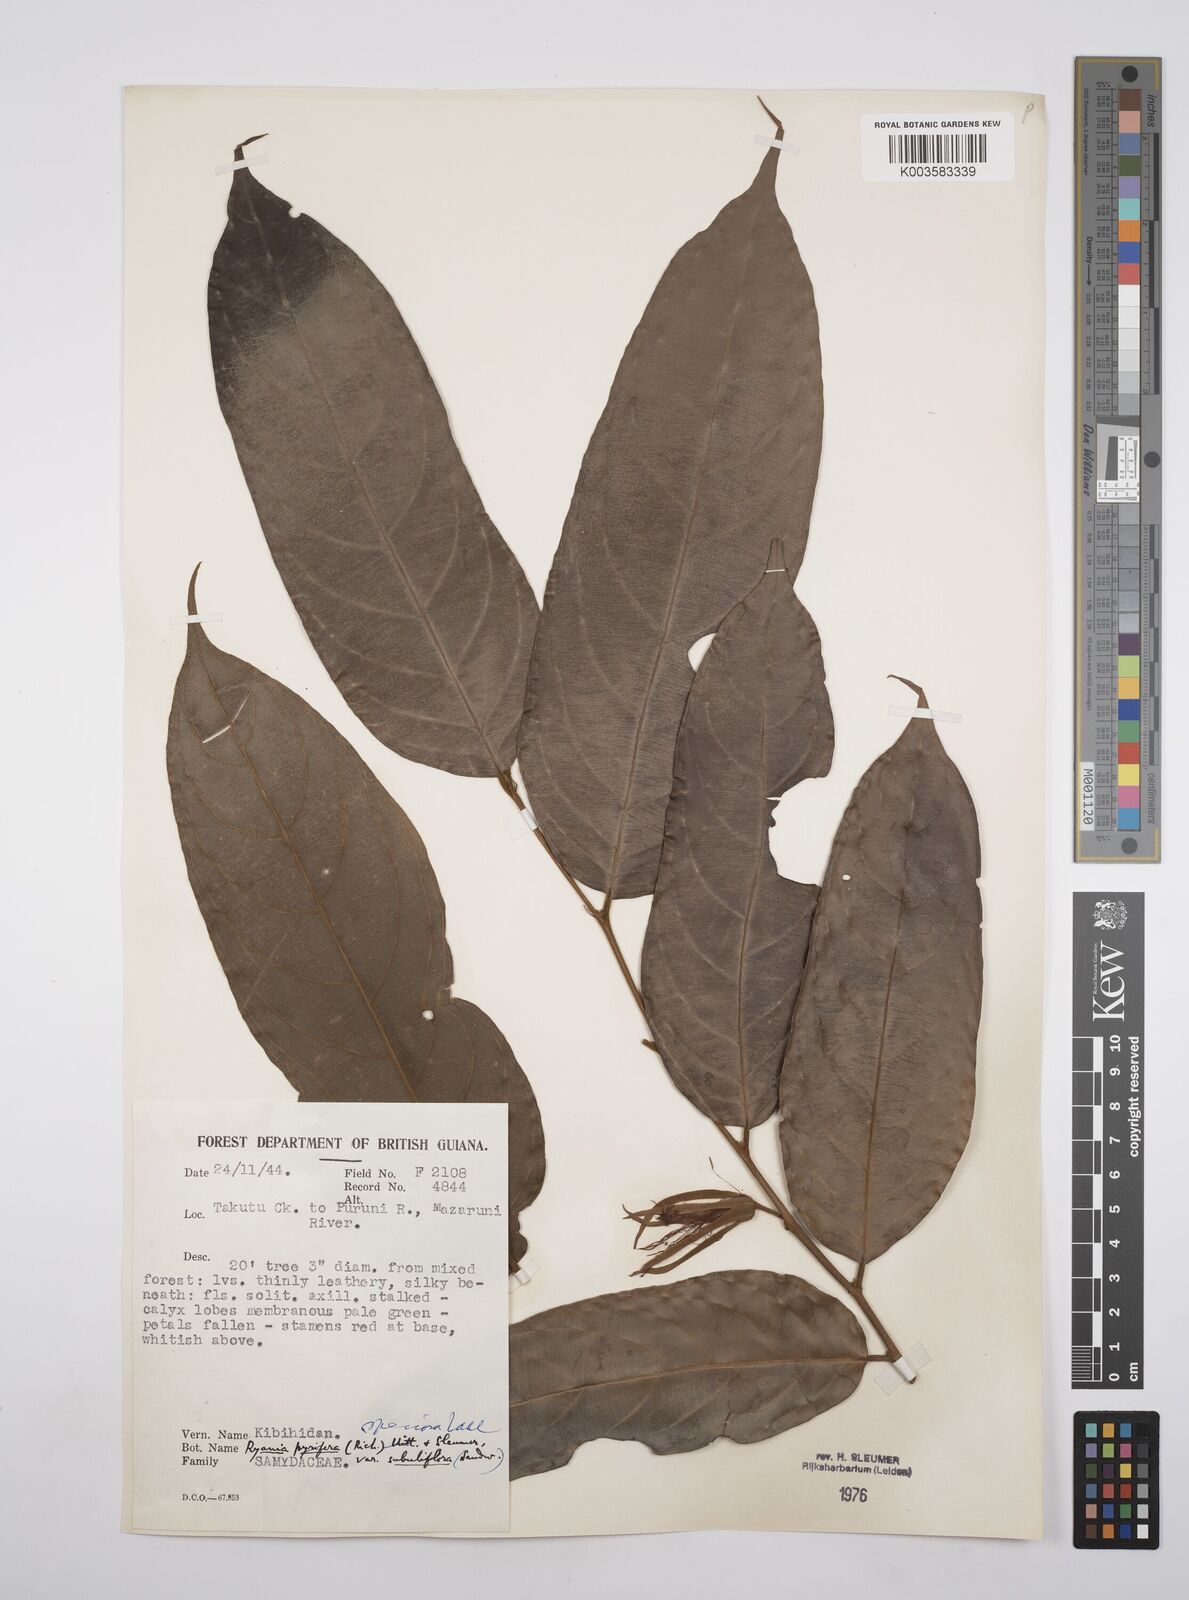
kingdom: Plantae
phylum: Tracheophyta
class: Magnoliopsida
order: Malpighiales
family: Salicaceae
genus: Ryania
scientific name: Ryania speciosa
